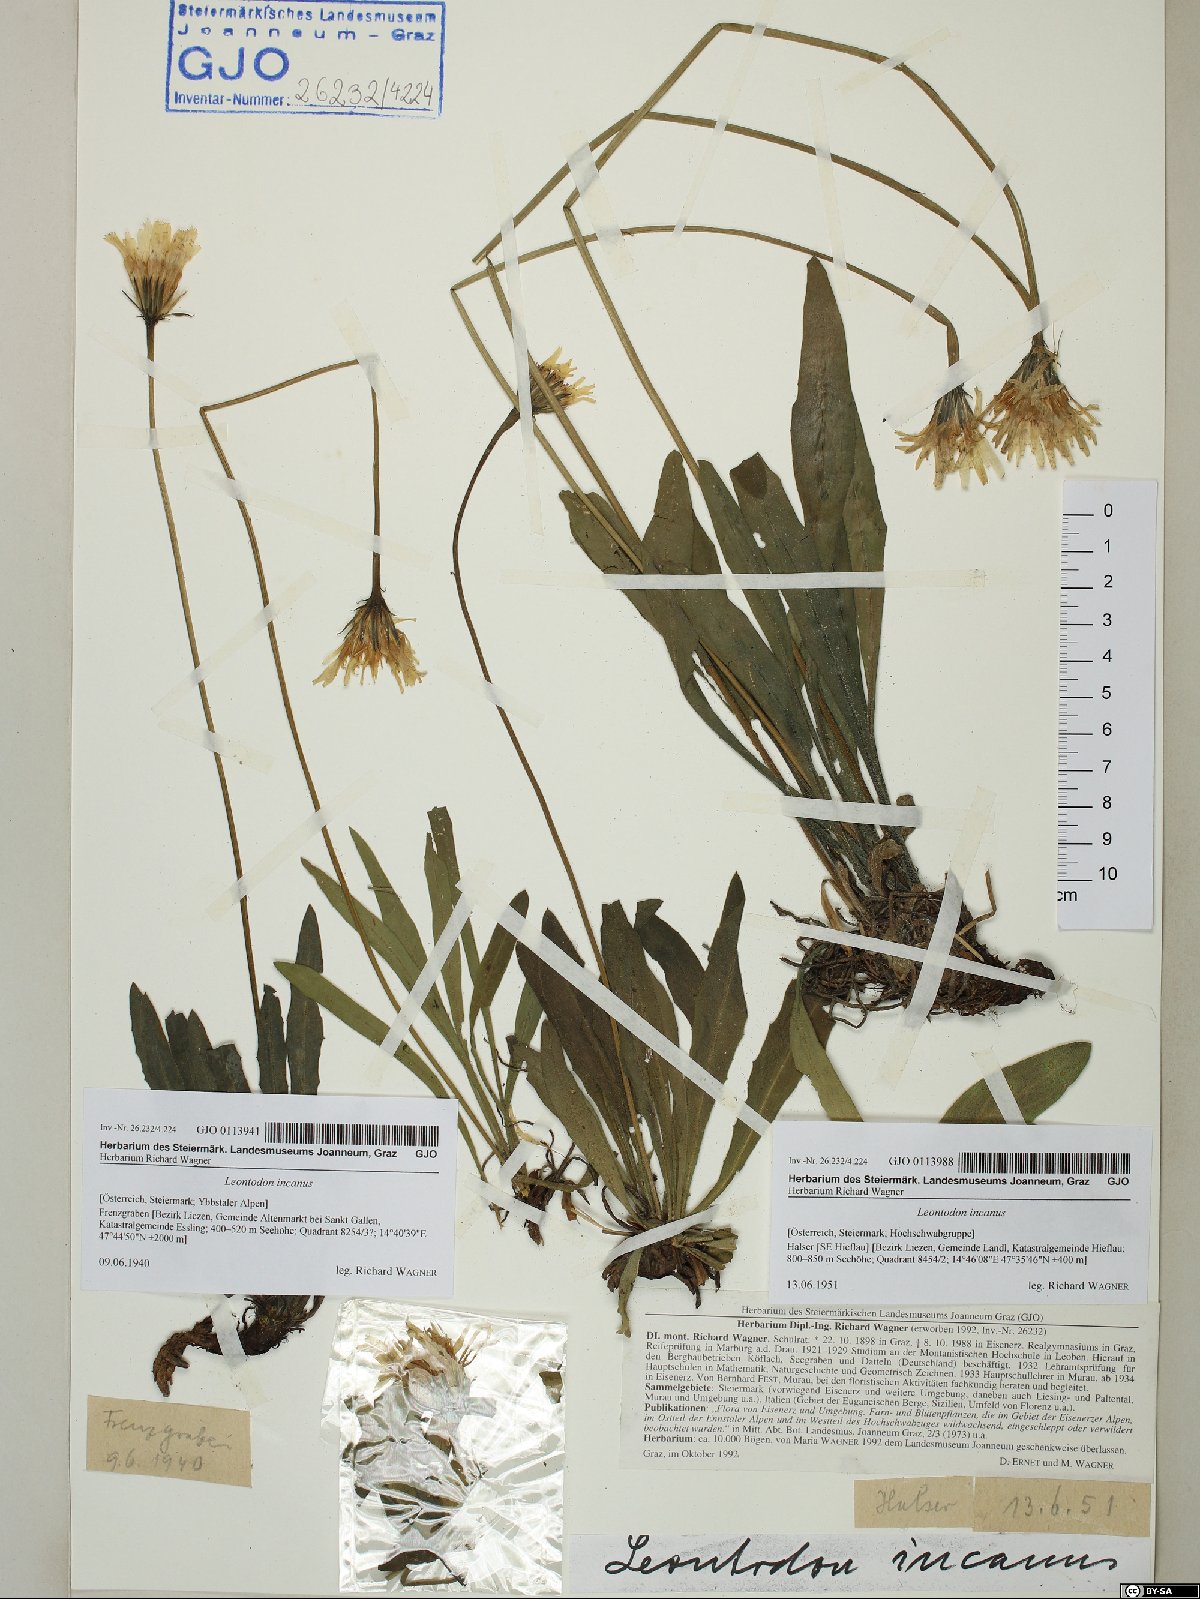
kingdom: Plantae
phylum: Tracheophyta
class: Magnoliopsida
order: Asterales
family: Asteraceae
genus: Leontodon
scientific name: Leontodon incanus
